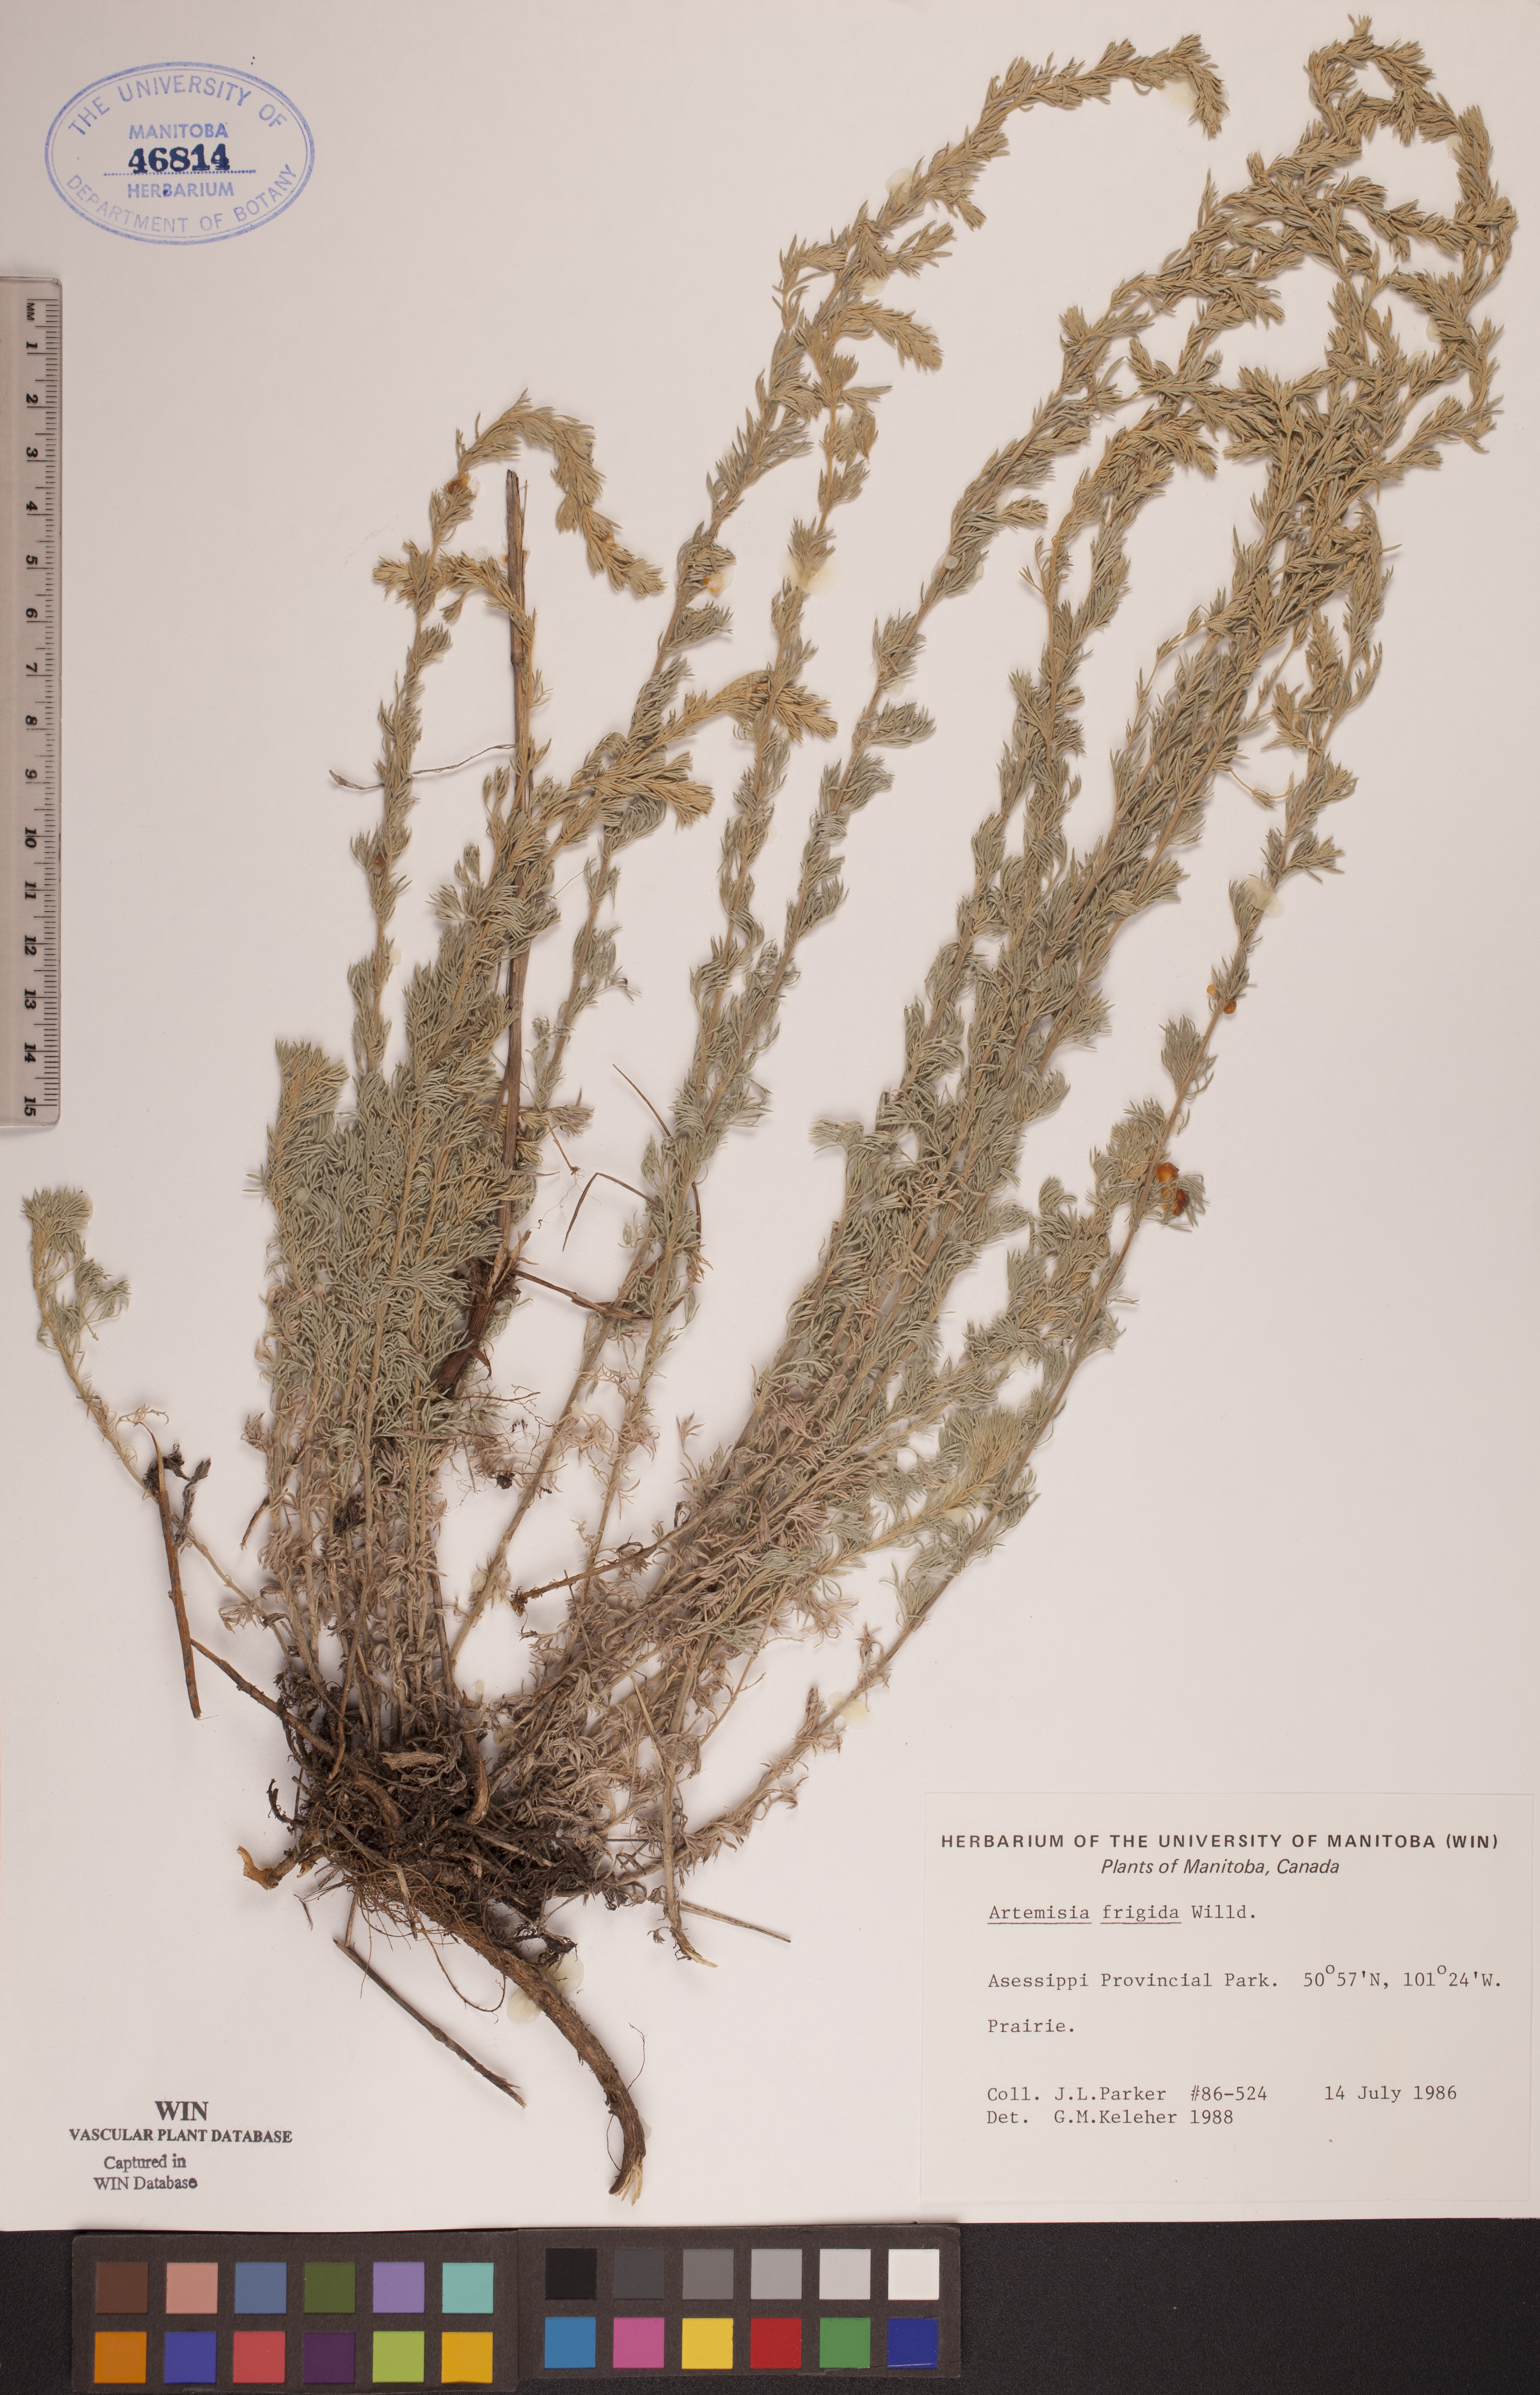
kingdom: Plantae
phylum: Tracheophyta
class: Magnoliopsida
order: Asterales
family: Asteraceae
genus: Artemisia
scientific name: Artemisia frigida
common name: Prairie sagewort
